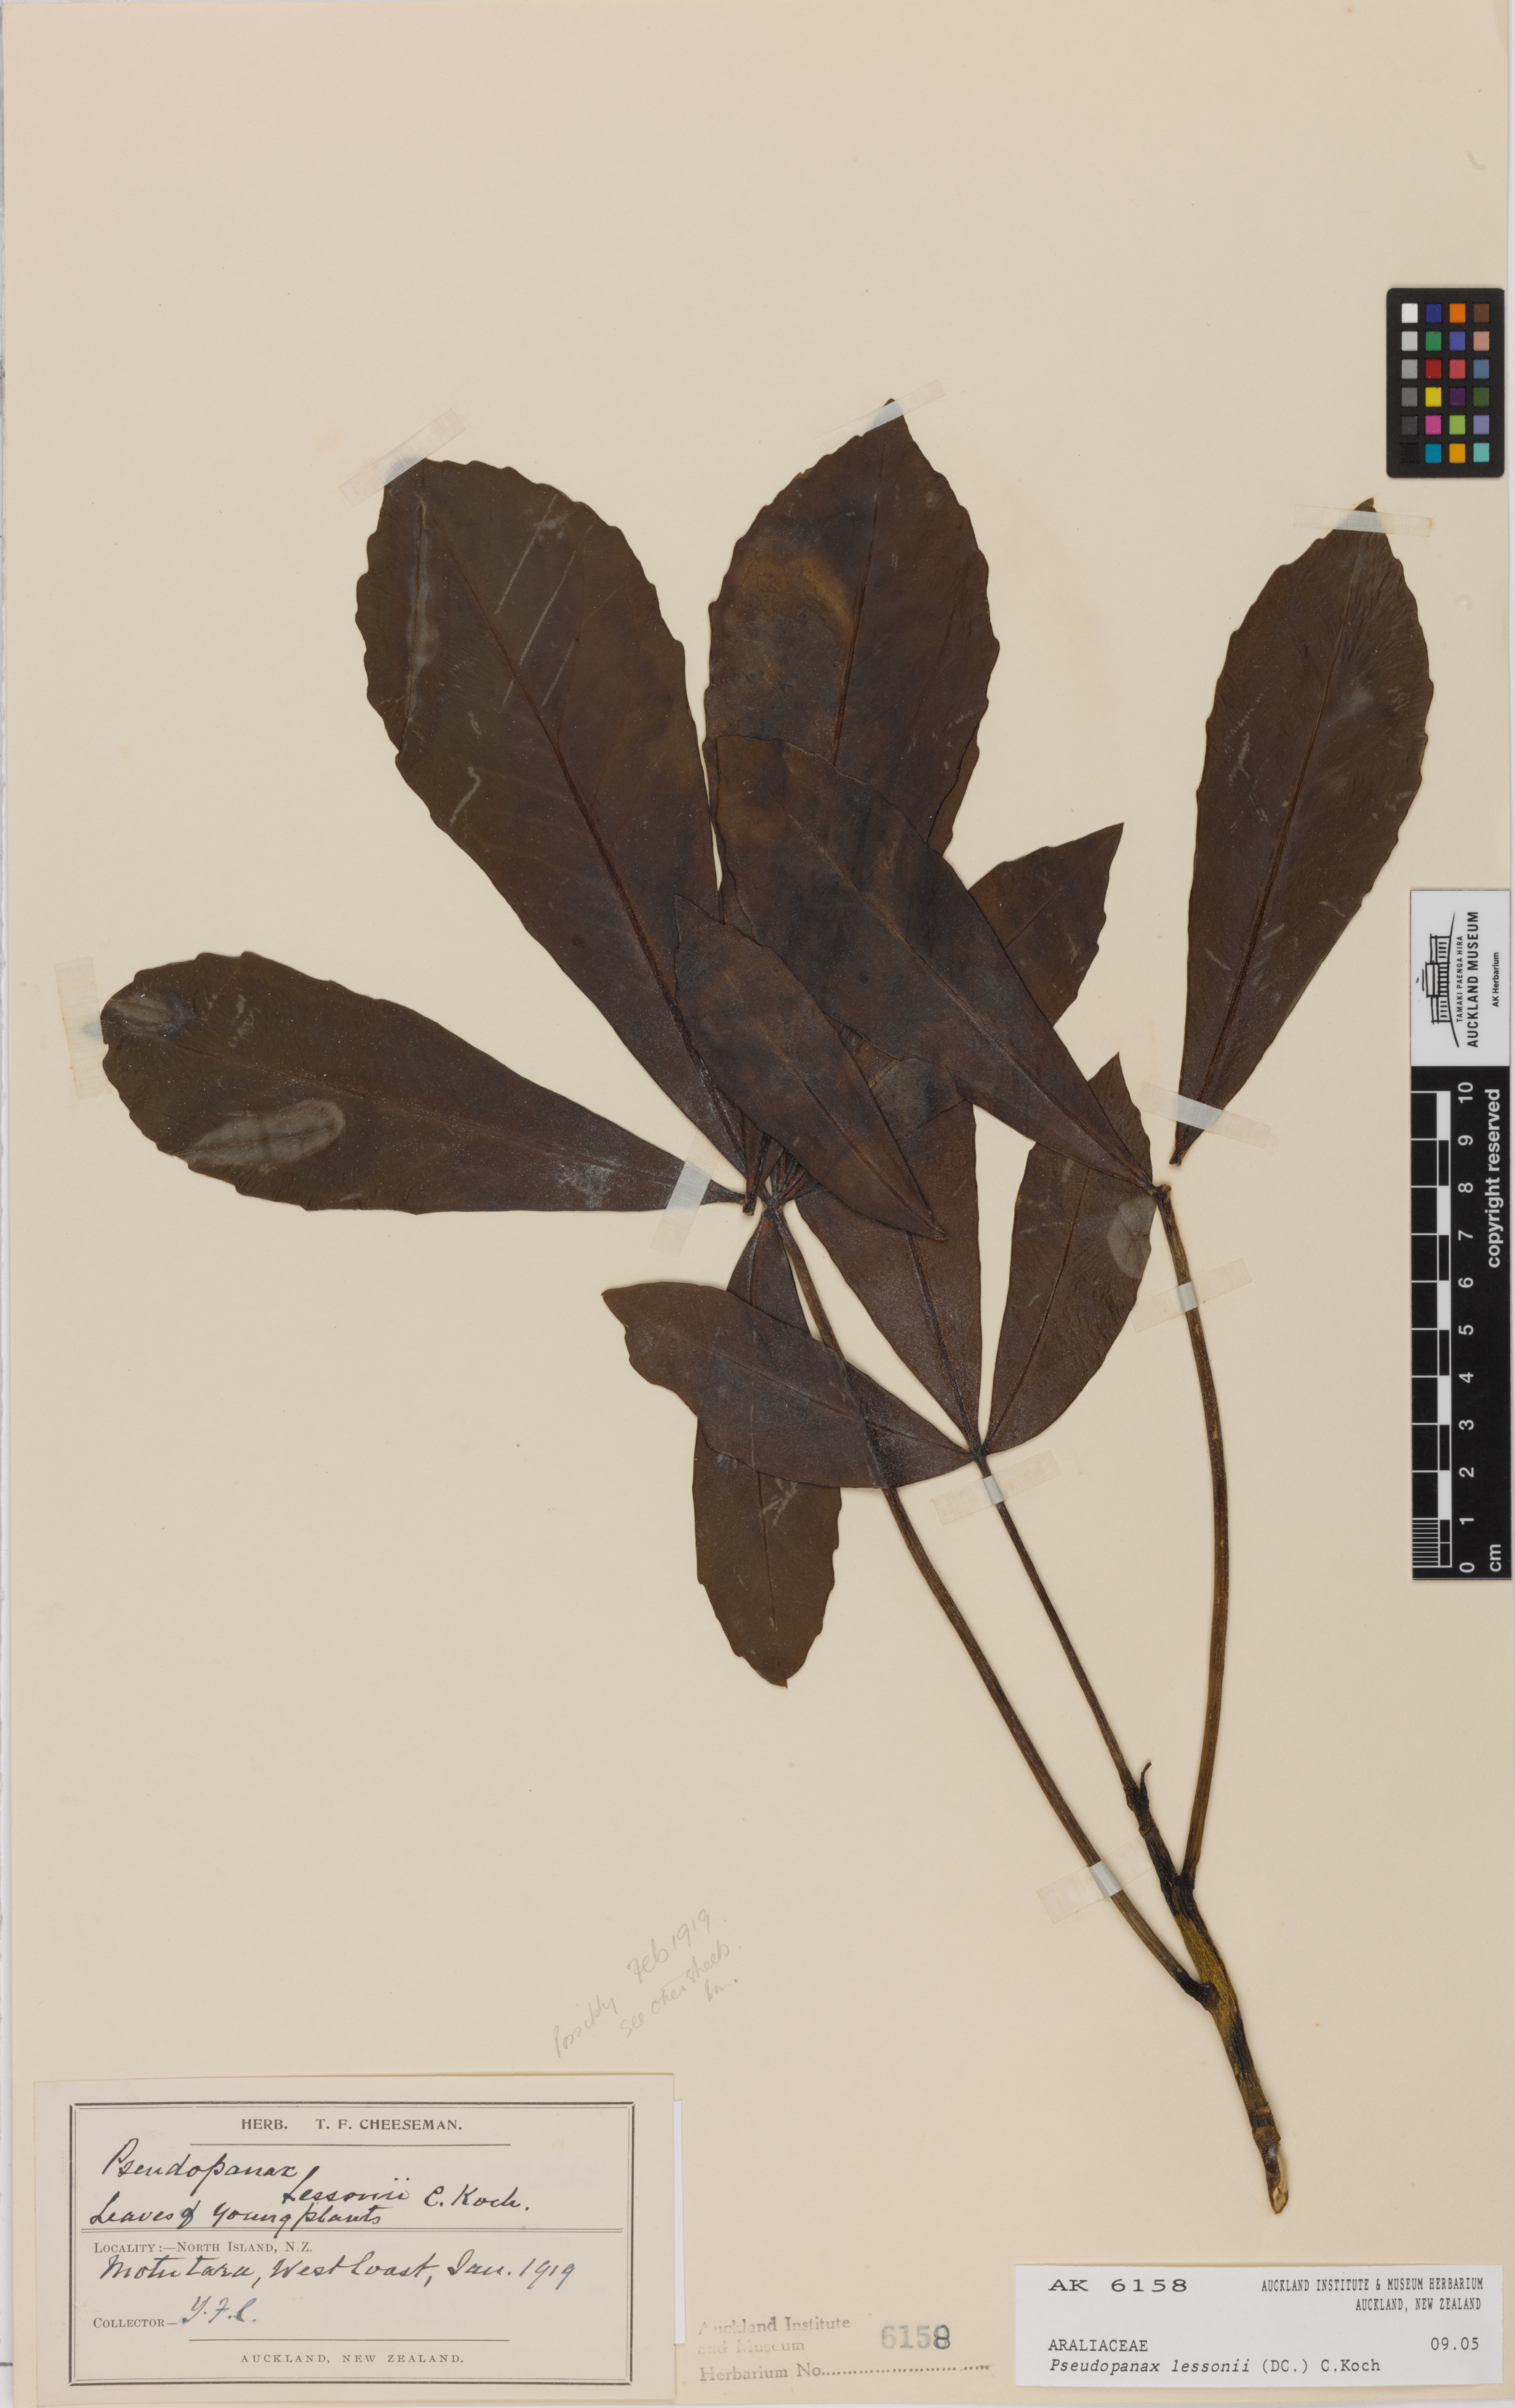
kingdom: Plantae
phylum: Tracheophyta
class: Magnoliopsida
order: Apiales
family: Araliaceae
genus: Pseudopanax
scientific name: Pseudopanax lessonii
